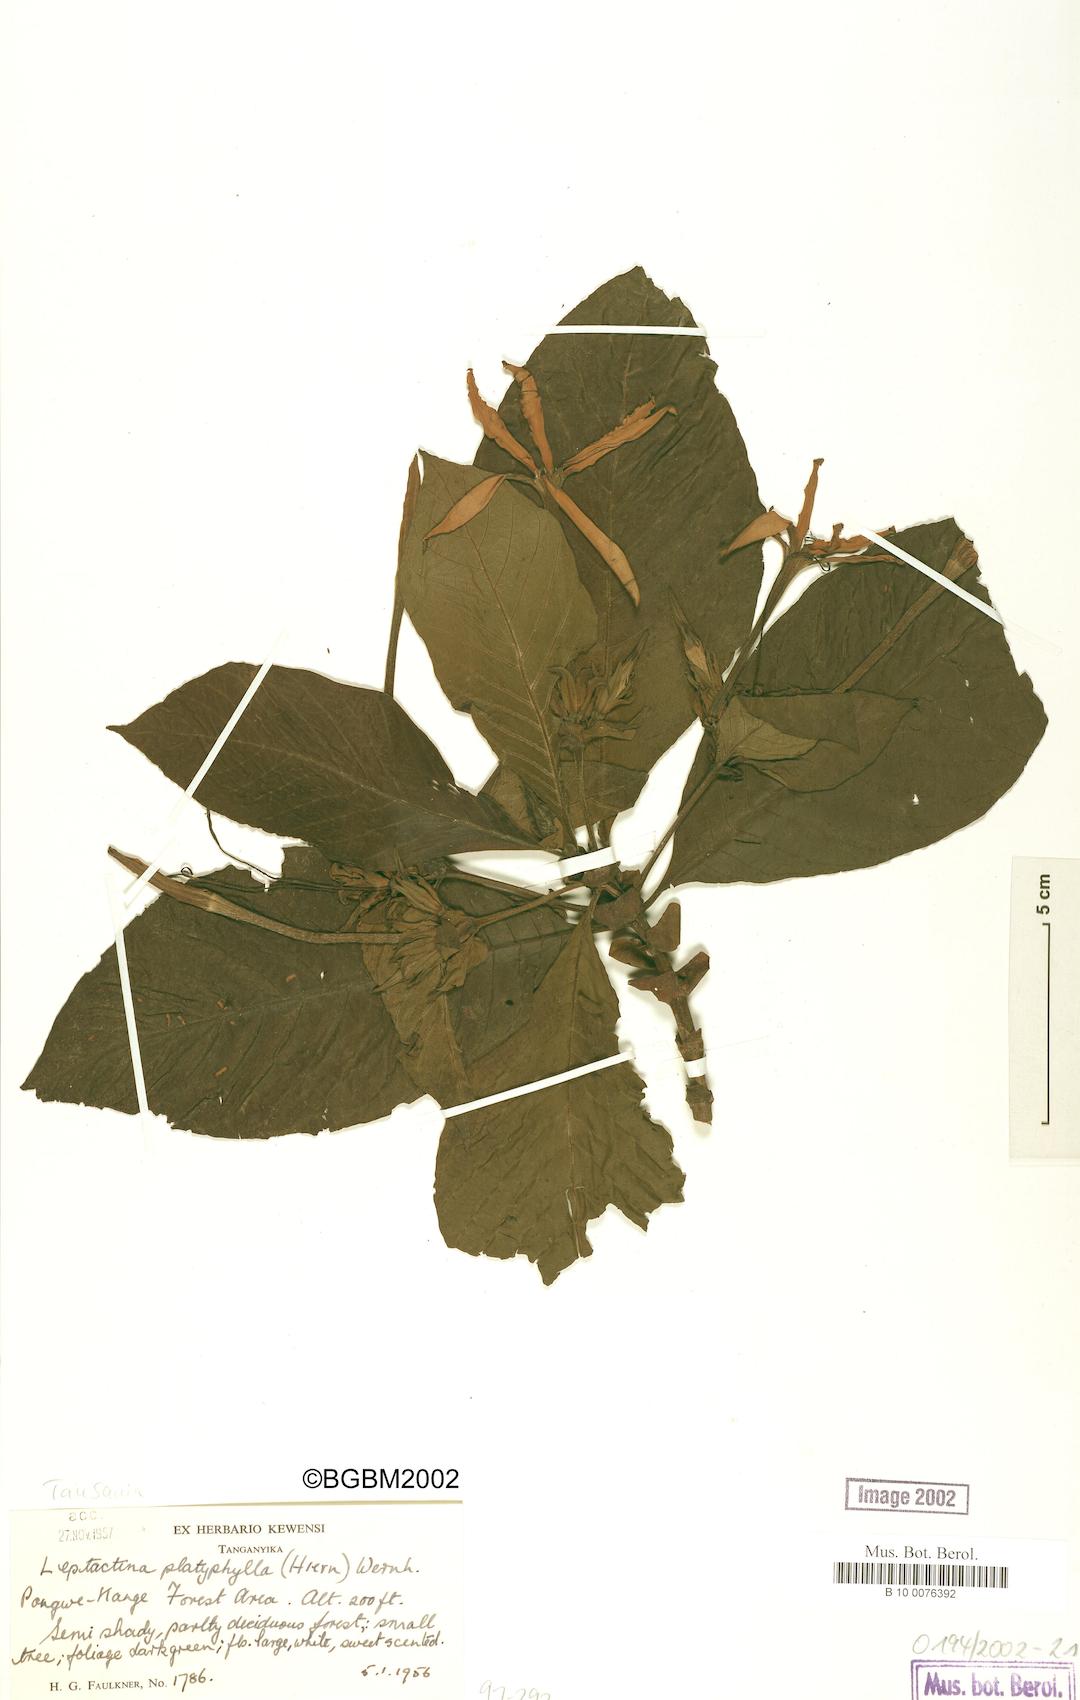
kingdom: Plantae
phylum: Tracheophyta
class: Magnoliopsida
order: Gentianales
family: Rubiaceae
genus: Leptactina
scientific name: Leptactina platyphylla
